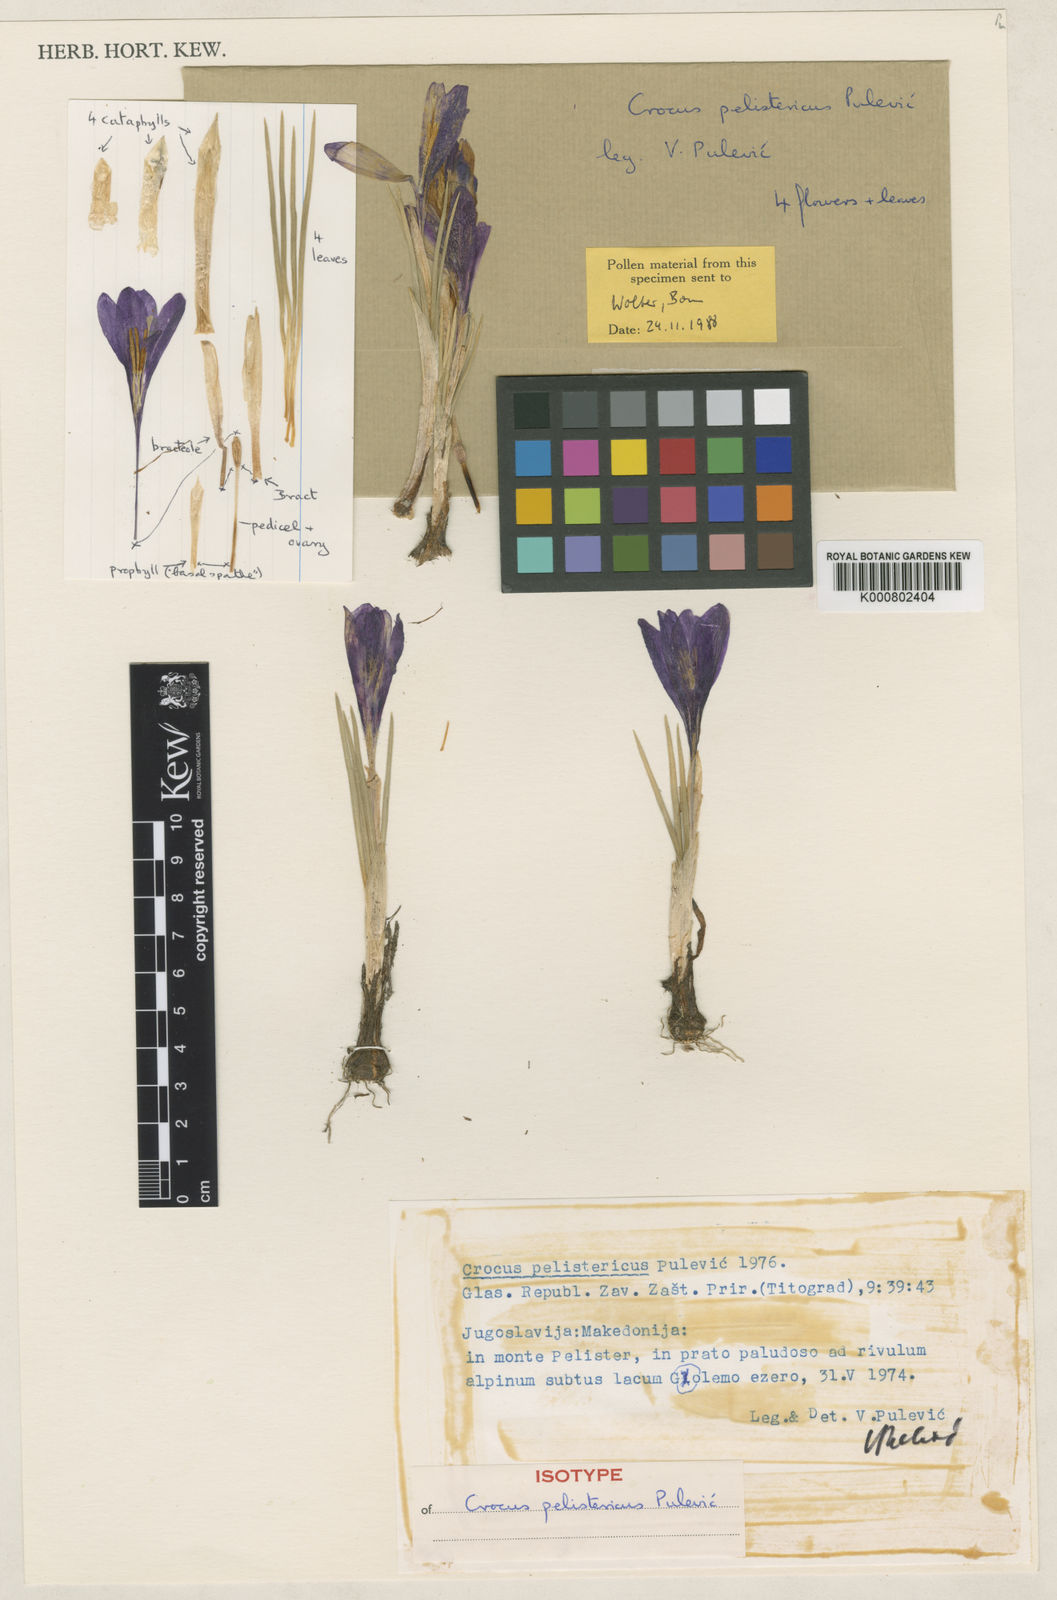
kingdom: Plantae
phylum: Tracheophyta
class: Liliopsida
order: Asparagales
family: Iridaceae
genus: Crocus
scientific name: Crocus pelistericus
